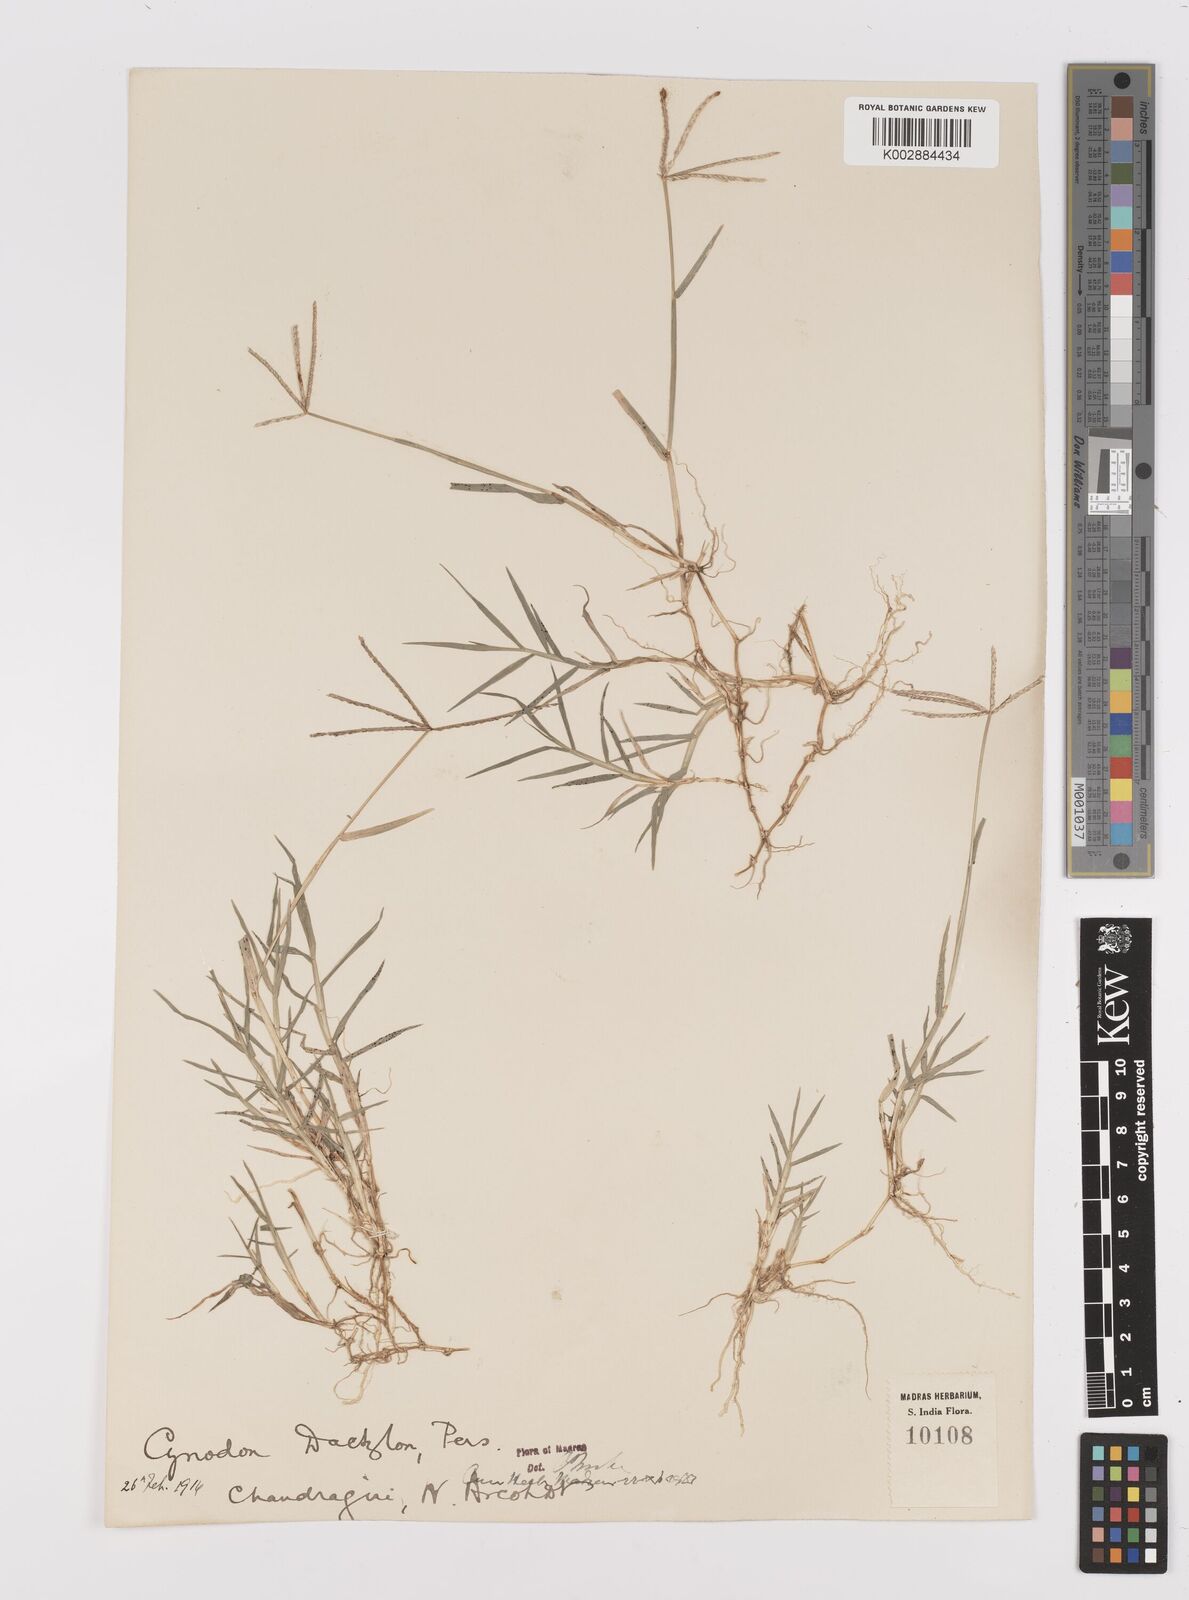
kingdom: Plantae
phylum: Tracheophyta
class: Liliopsida
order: Poales
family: Poaceae
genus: Cynodon
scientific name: Cynodon dactylon
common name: Bermuda grass
